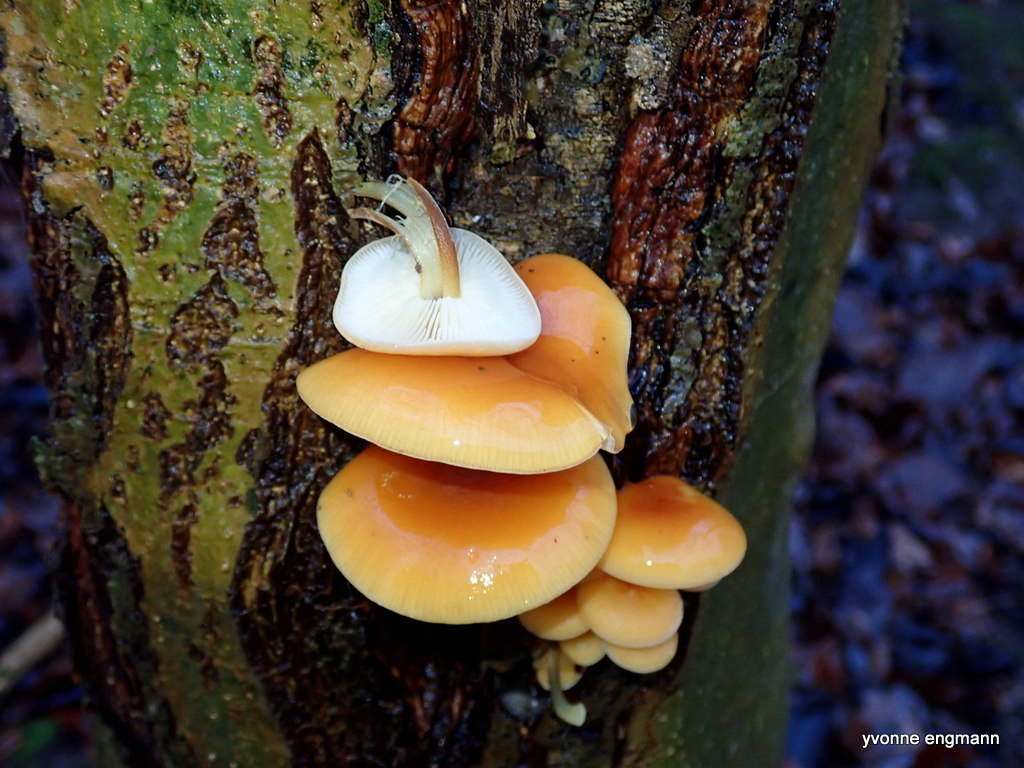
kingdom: Fungi
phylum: Basidiomycota
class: Agaricomycetes
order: Agaricales
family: Physalacriaceae
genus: Flammulina
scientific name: Flammulina
